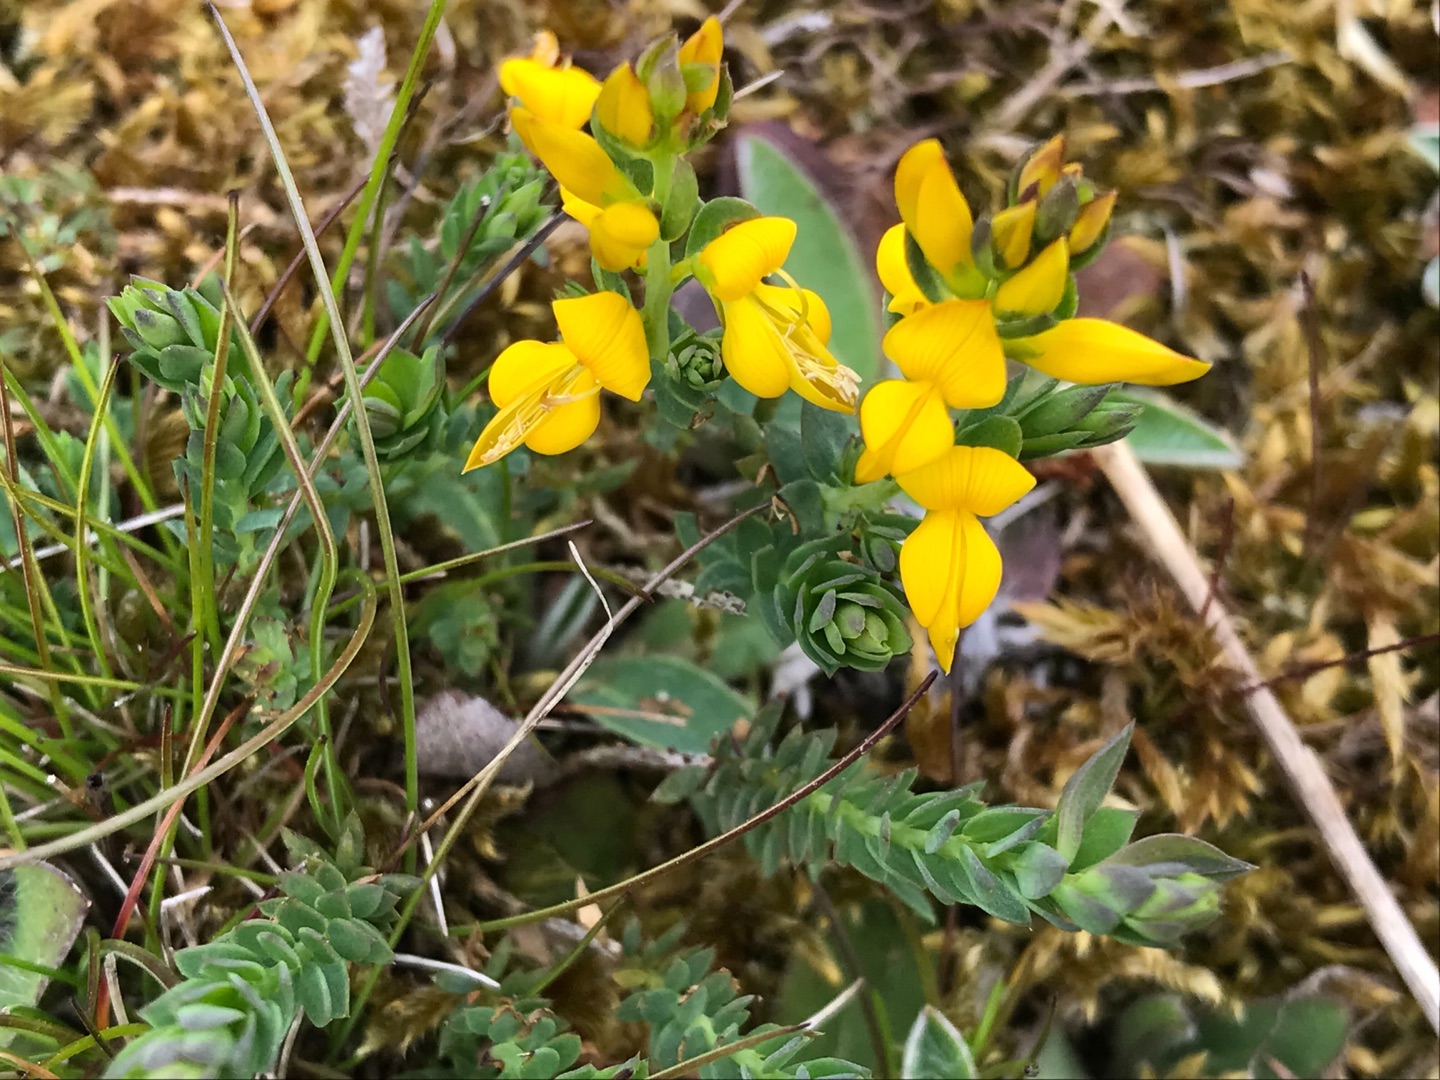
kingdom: Plantae
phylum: Tracheophyta
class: Magnoliopsida
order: Fabales
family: Fabaceae
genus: Genista
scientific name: Genista anglica
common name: Engelsk visse
